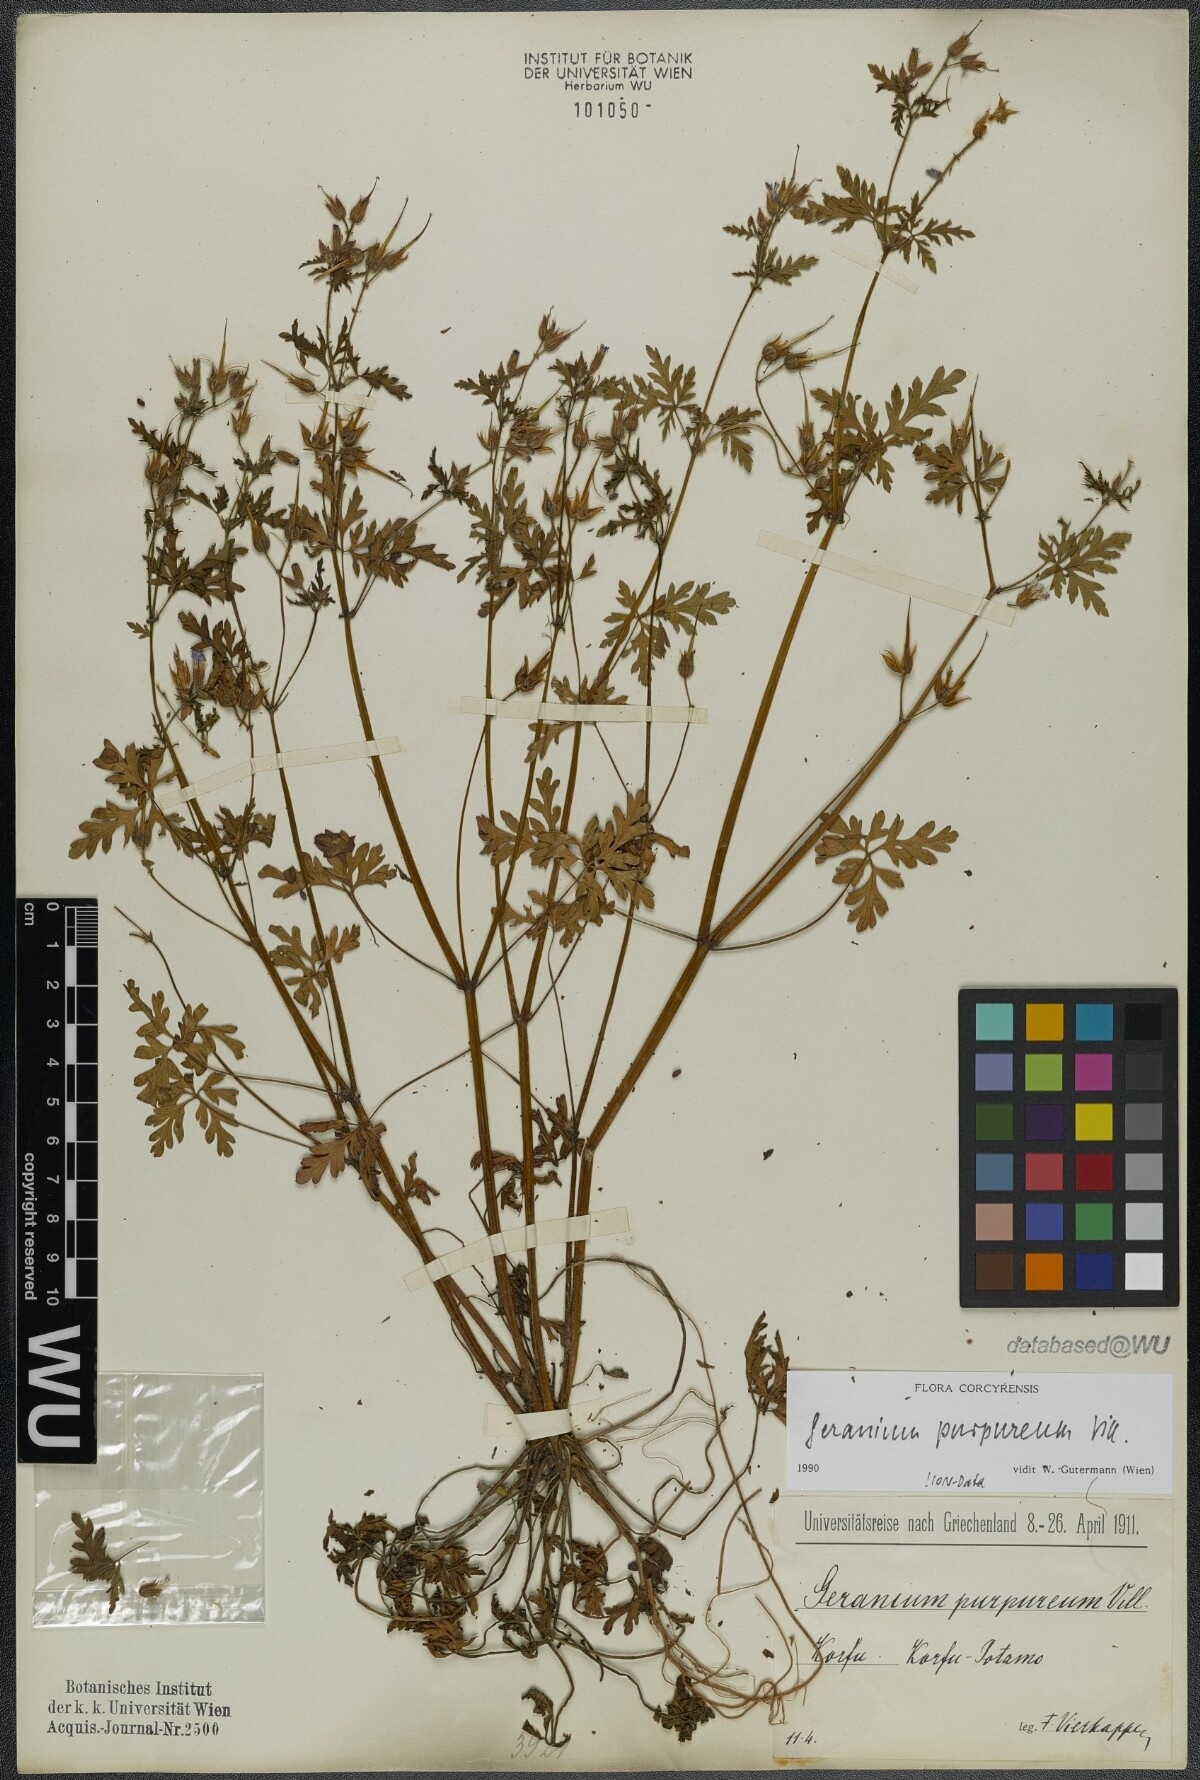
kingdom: Plantae
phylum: Tracheophyta
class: Magnoliopsida
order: Geraniales
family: Geraniaceae
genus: Geranium
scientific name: Geranium purpureum
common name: Little-robin
